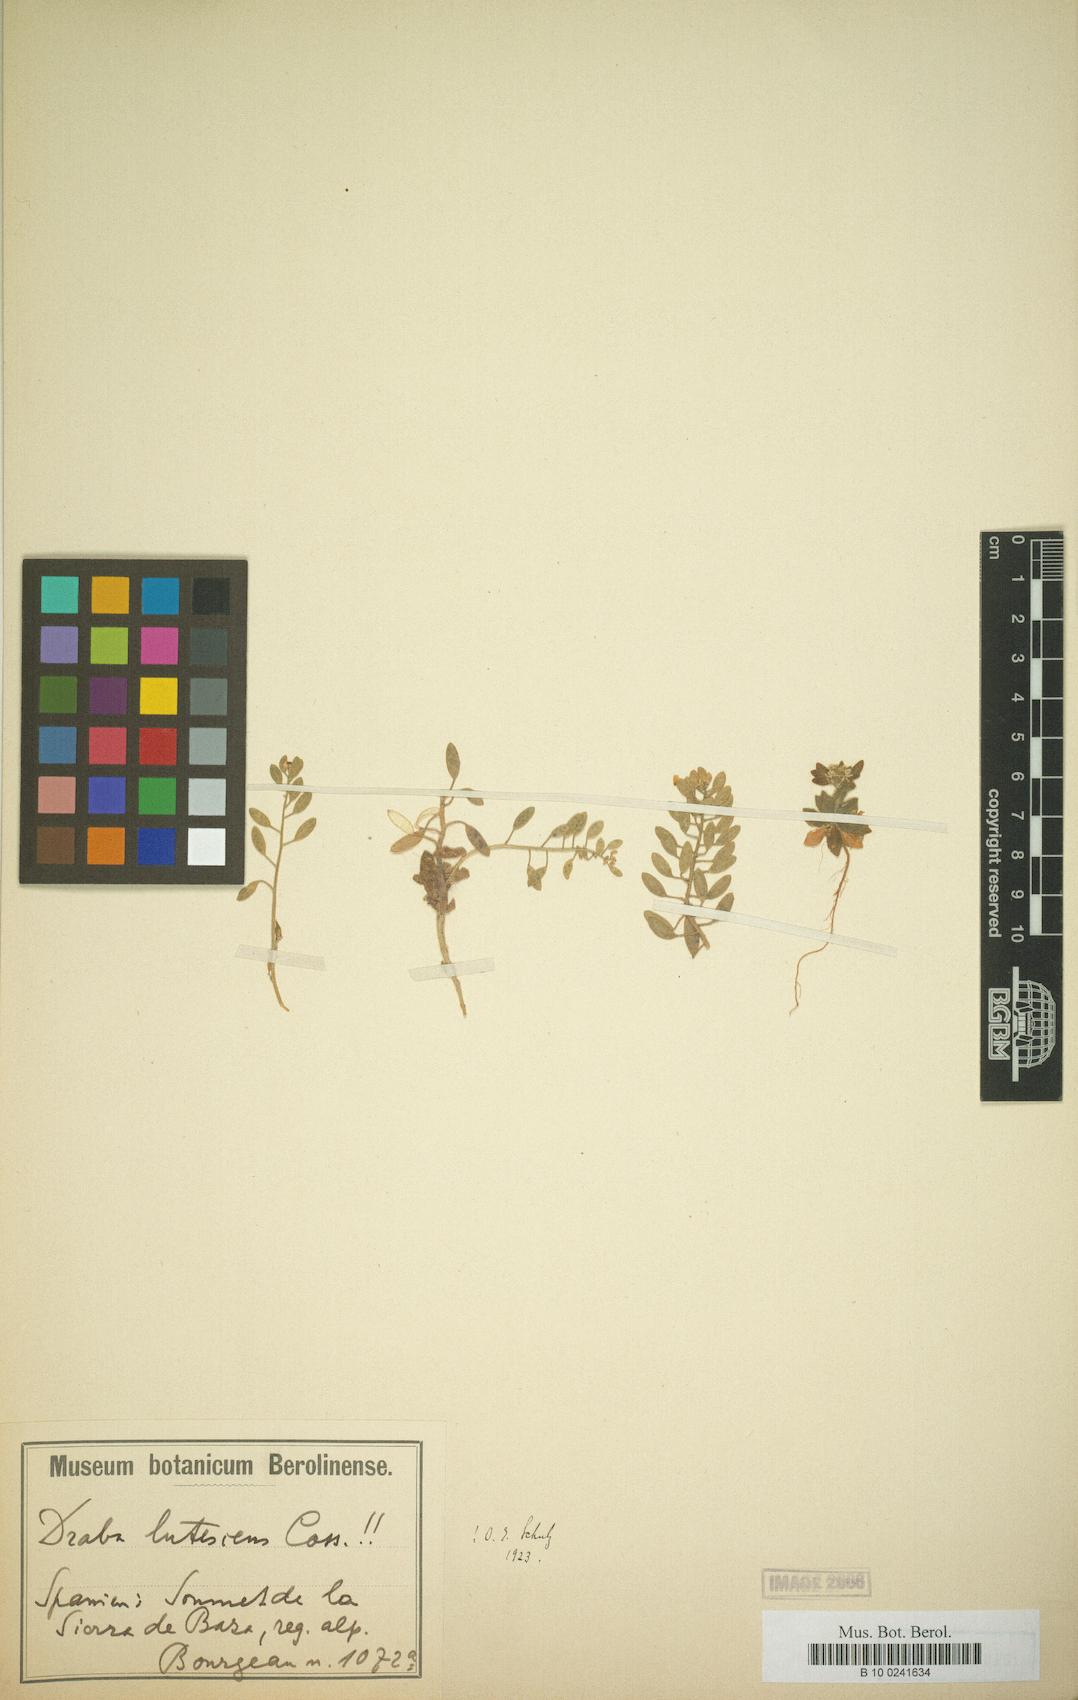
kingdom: Plantae
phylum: Tracheophyta
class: Magnoliopsida
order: Brassicales
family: Brassicaceae
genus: Draba
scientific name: Draba lutescens
